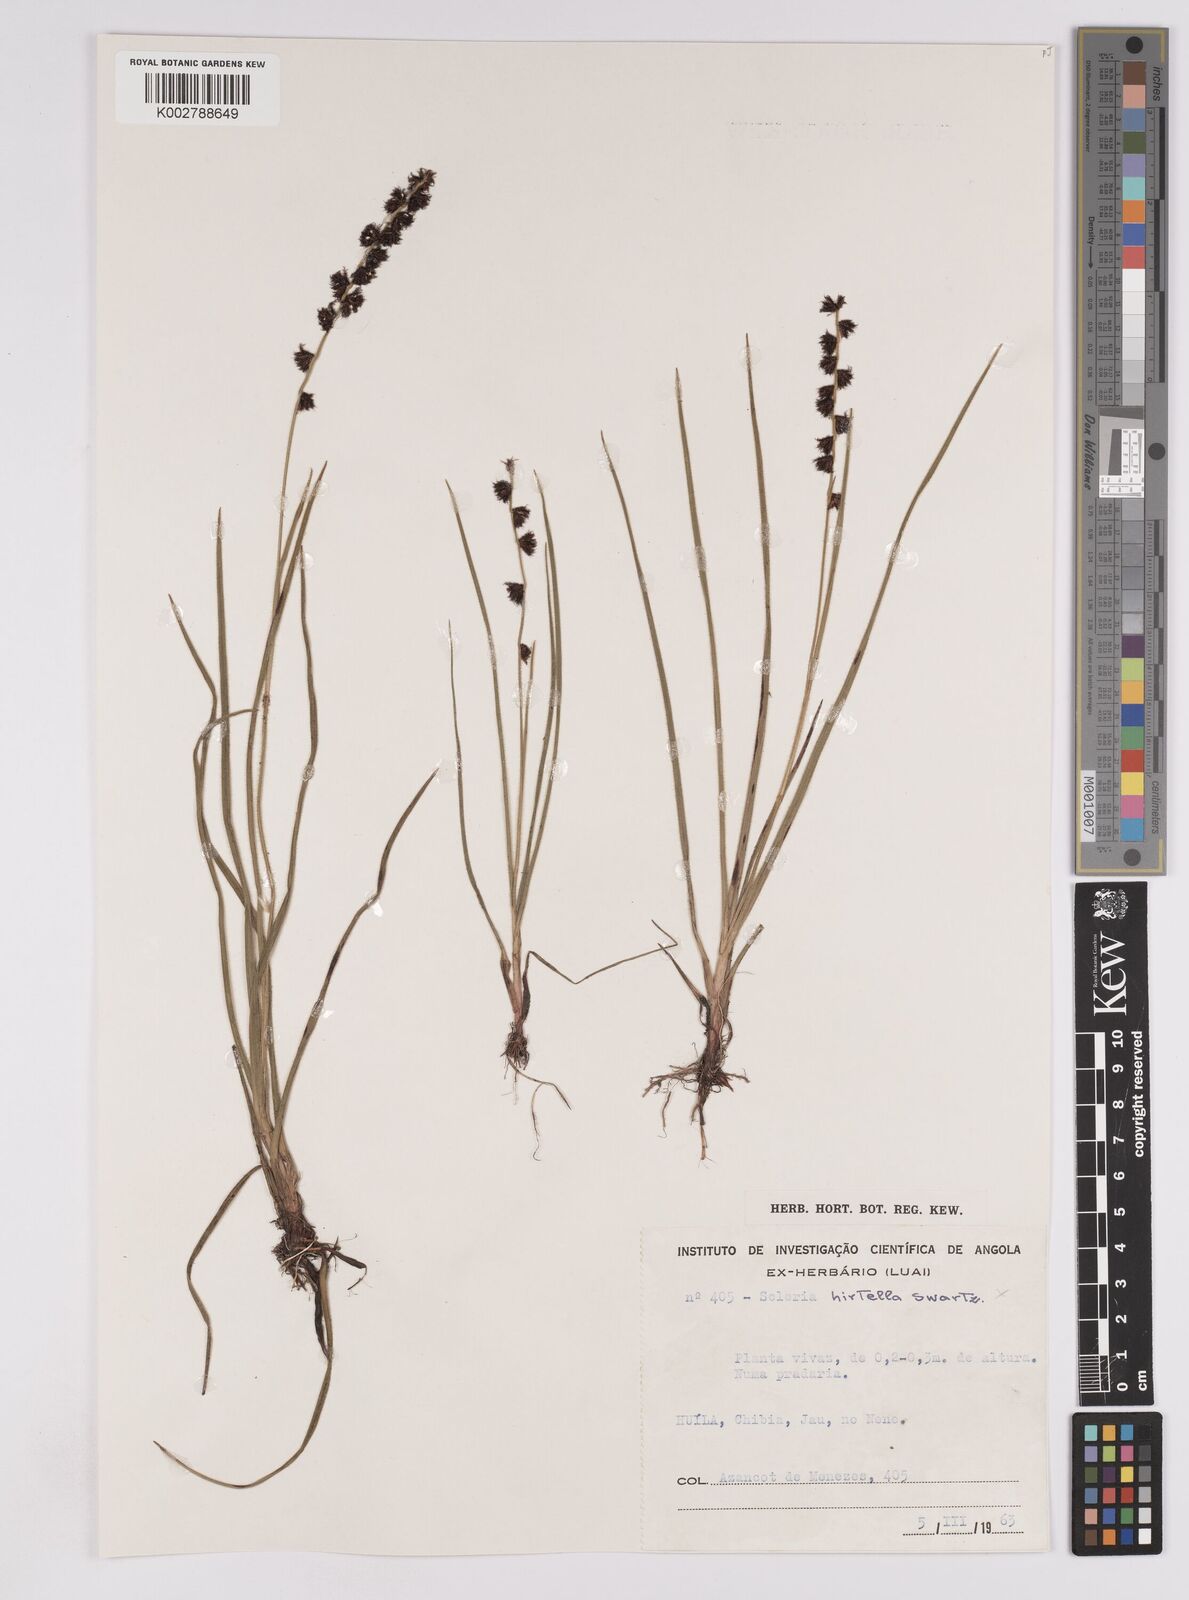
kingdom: Plantae
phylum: Tracheophyta
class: Liliopsida
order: Poales
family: Cyperaceae
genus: Scleria
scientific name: Scleria
